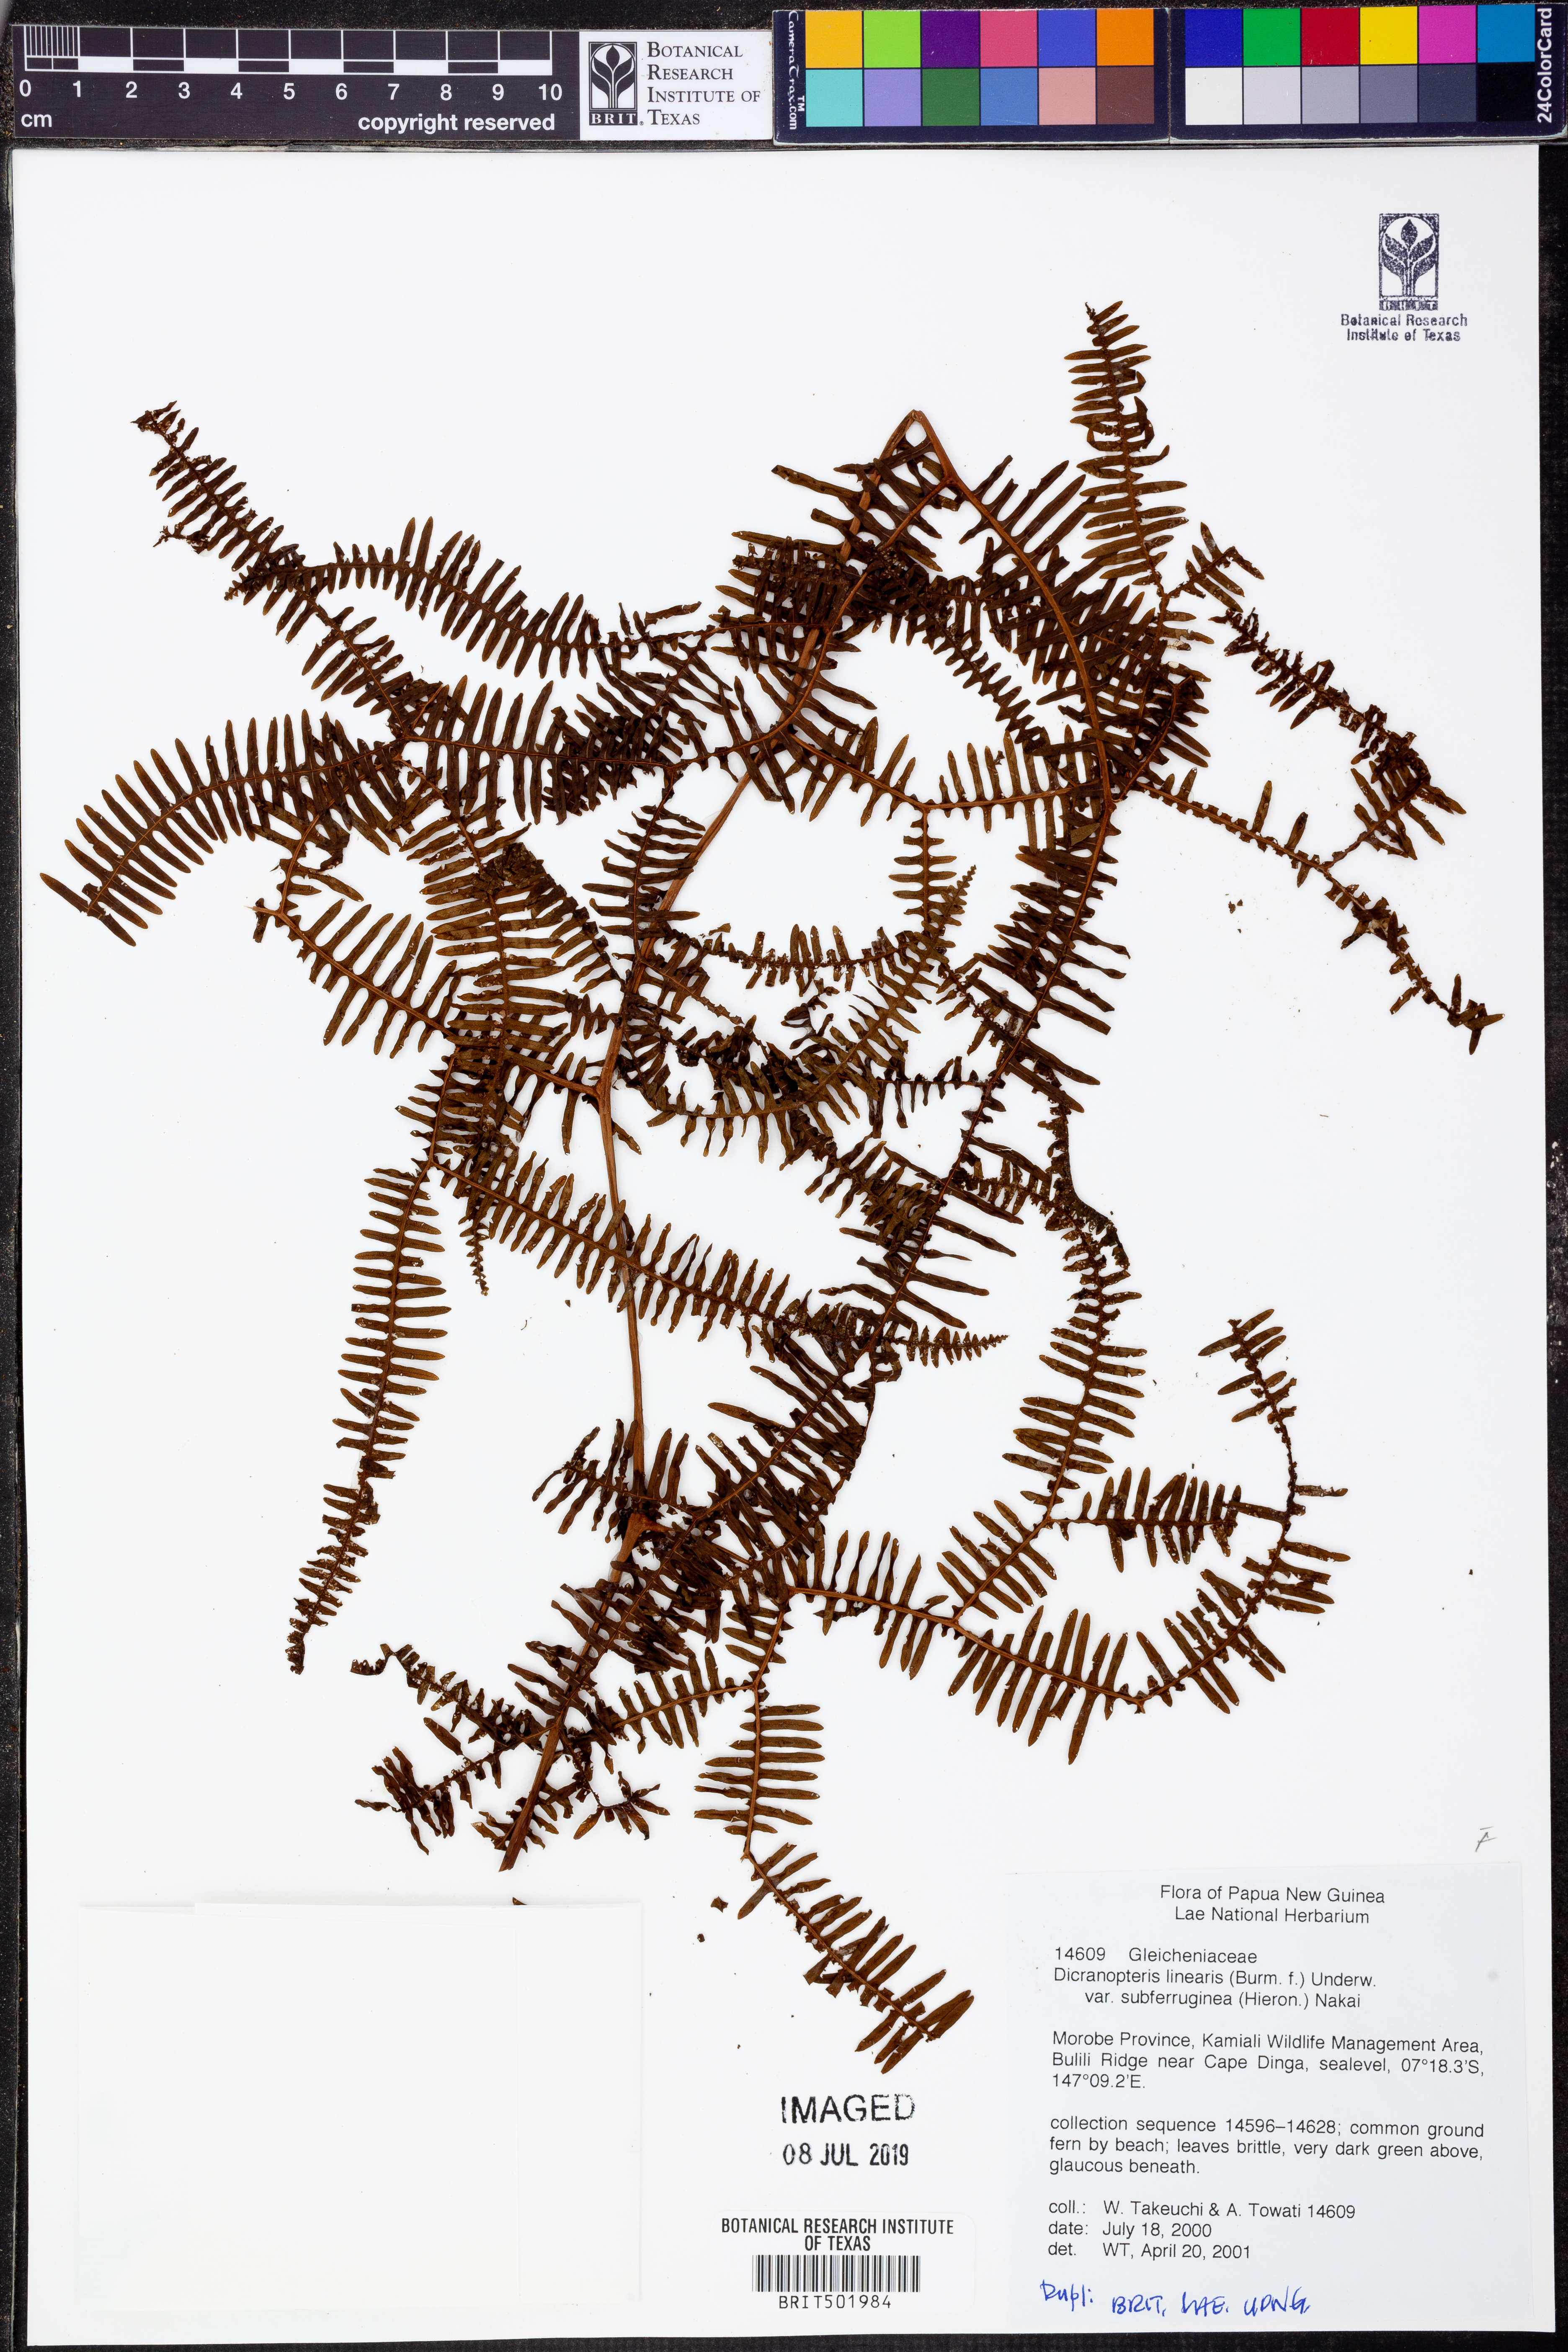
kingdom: Plantae
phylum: Tracheophyta
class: Polypodiopsida
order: Gleicheniales
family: Gleicheniaceae
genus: Dicranopteris
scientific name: Dicranopteris linearis
